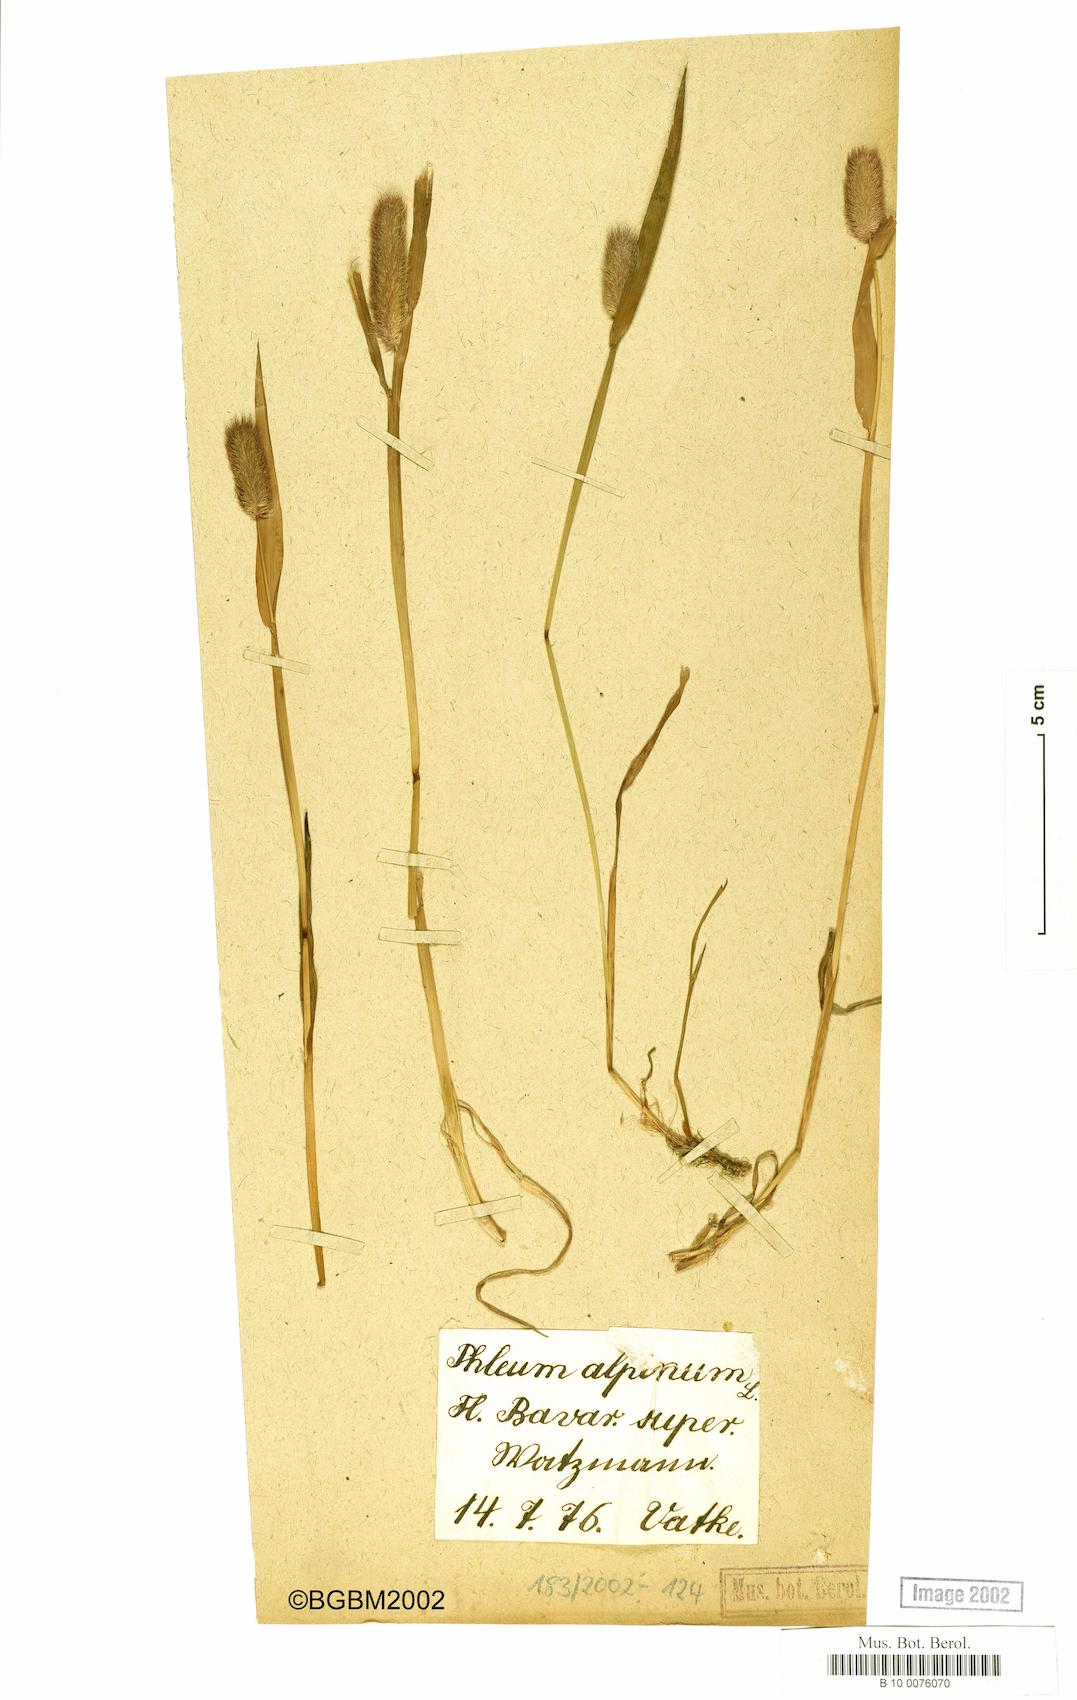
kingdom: Plantae
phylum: Tracheophyta
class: Liliopsida
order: Poales
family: Poaceae
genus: Phleum
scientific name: Phleum alpinum
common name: Alpine cat's-tail
